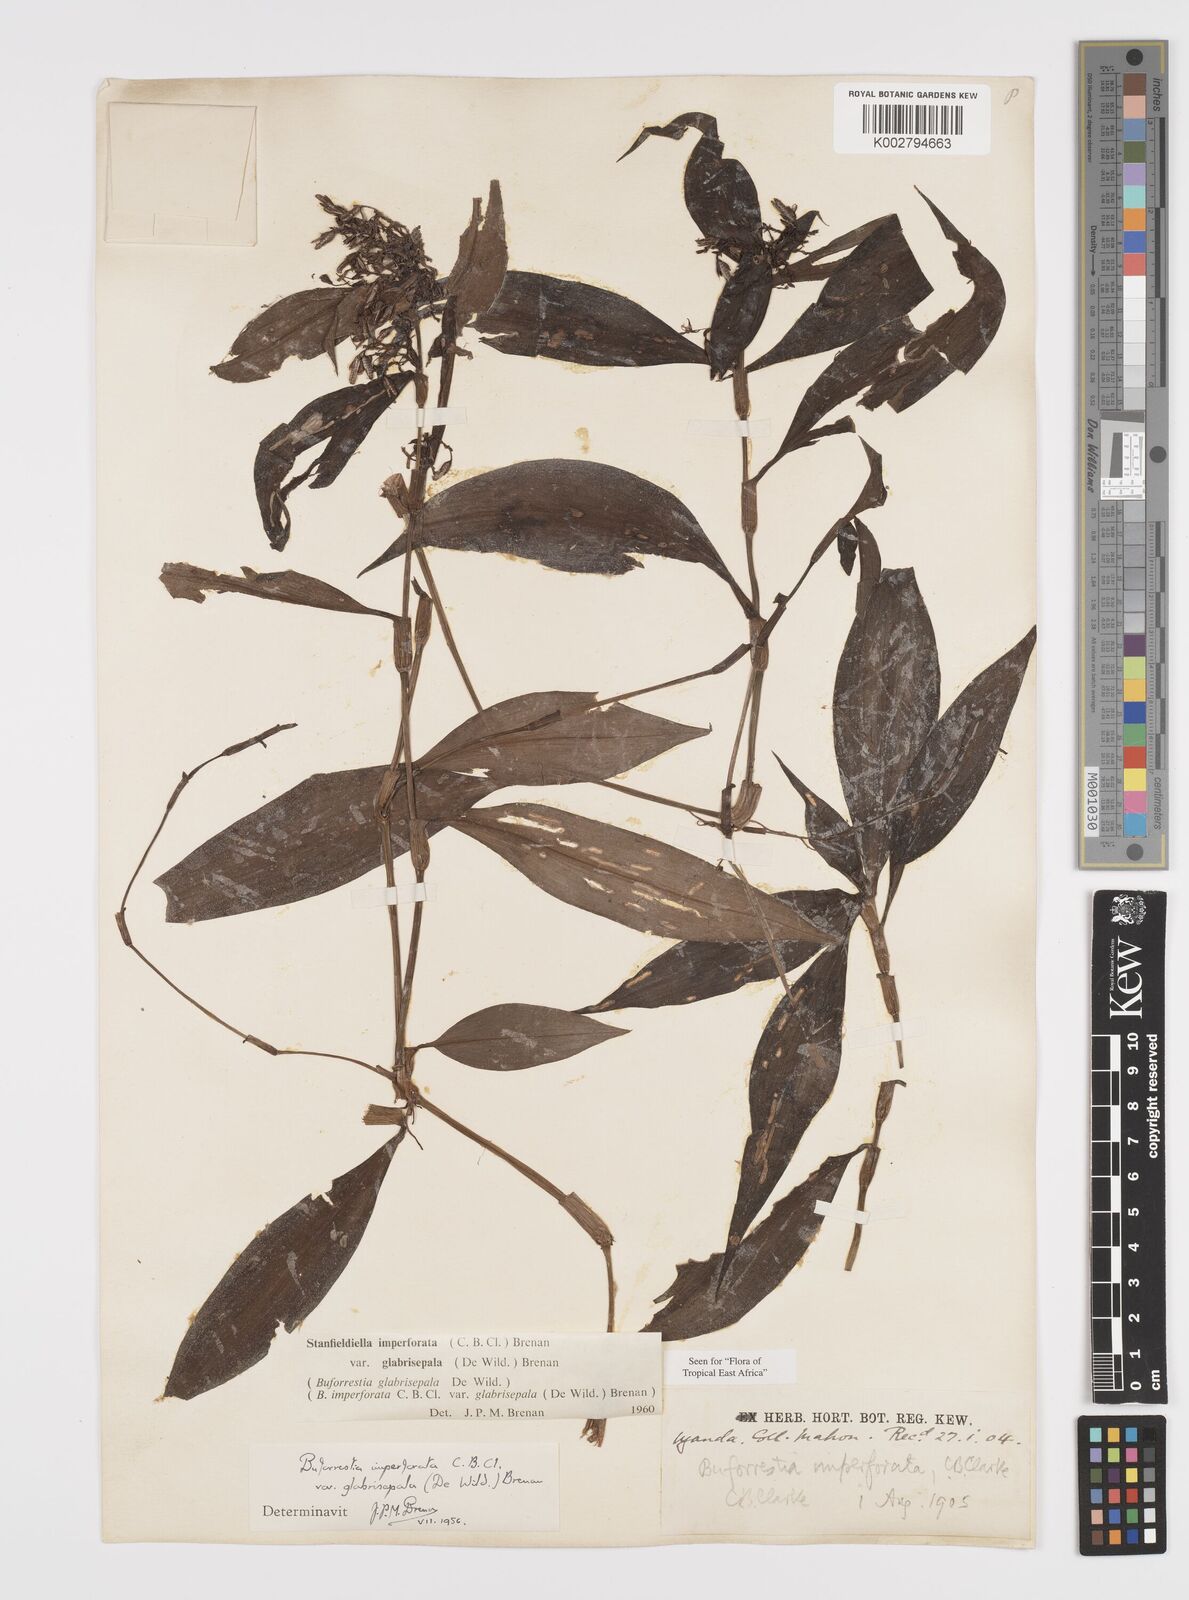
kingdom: Plantae
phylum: Tracheophyta
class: Liliopsida
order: Commelinales
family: Commelinaceae
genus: Stanfieldiella
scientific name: Stanfieldiella imperforata
